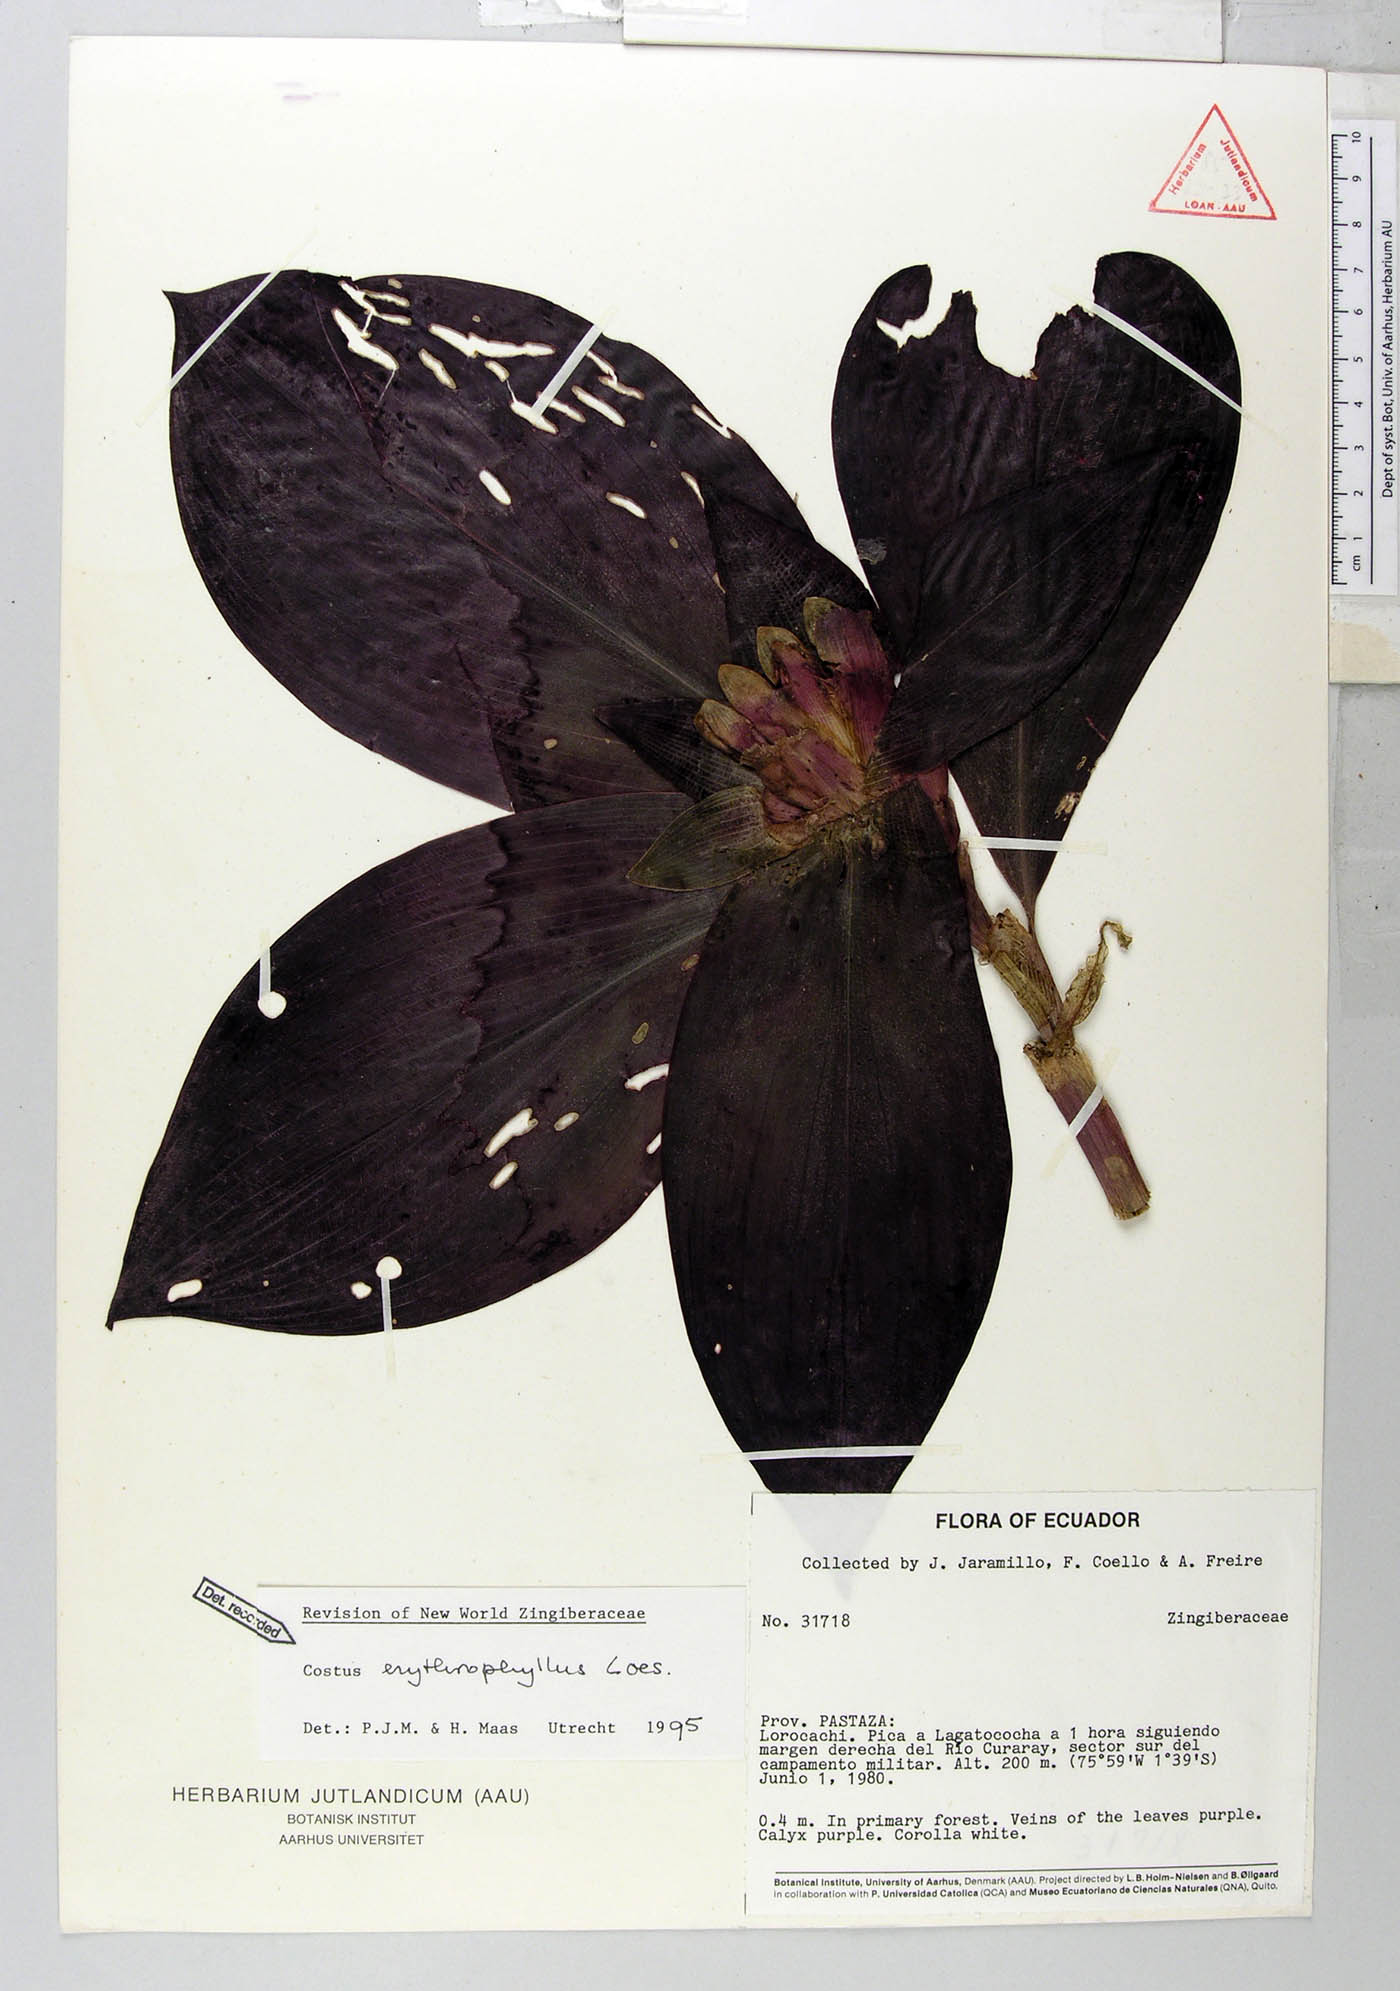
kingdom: Plantae
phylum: Tracheophyta
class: Liliopsida
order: Zingiberales
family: Costaceae
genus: Costus
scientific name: Costus erythrophyllus
